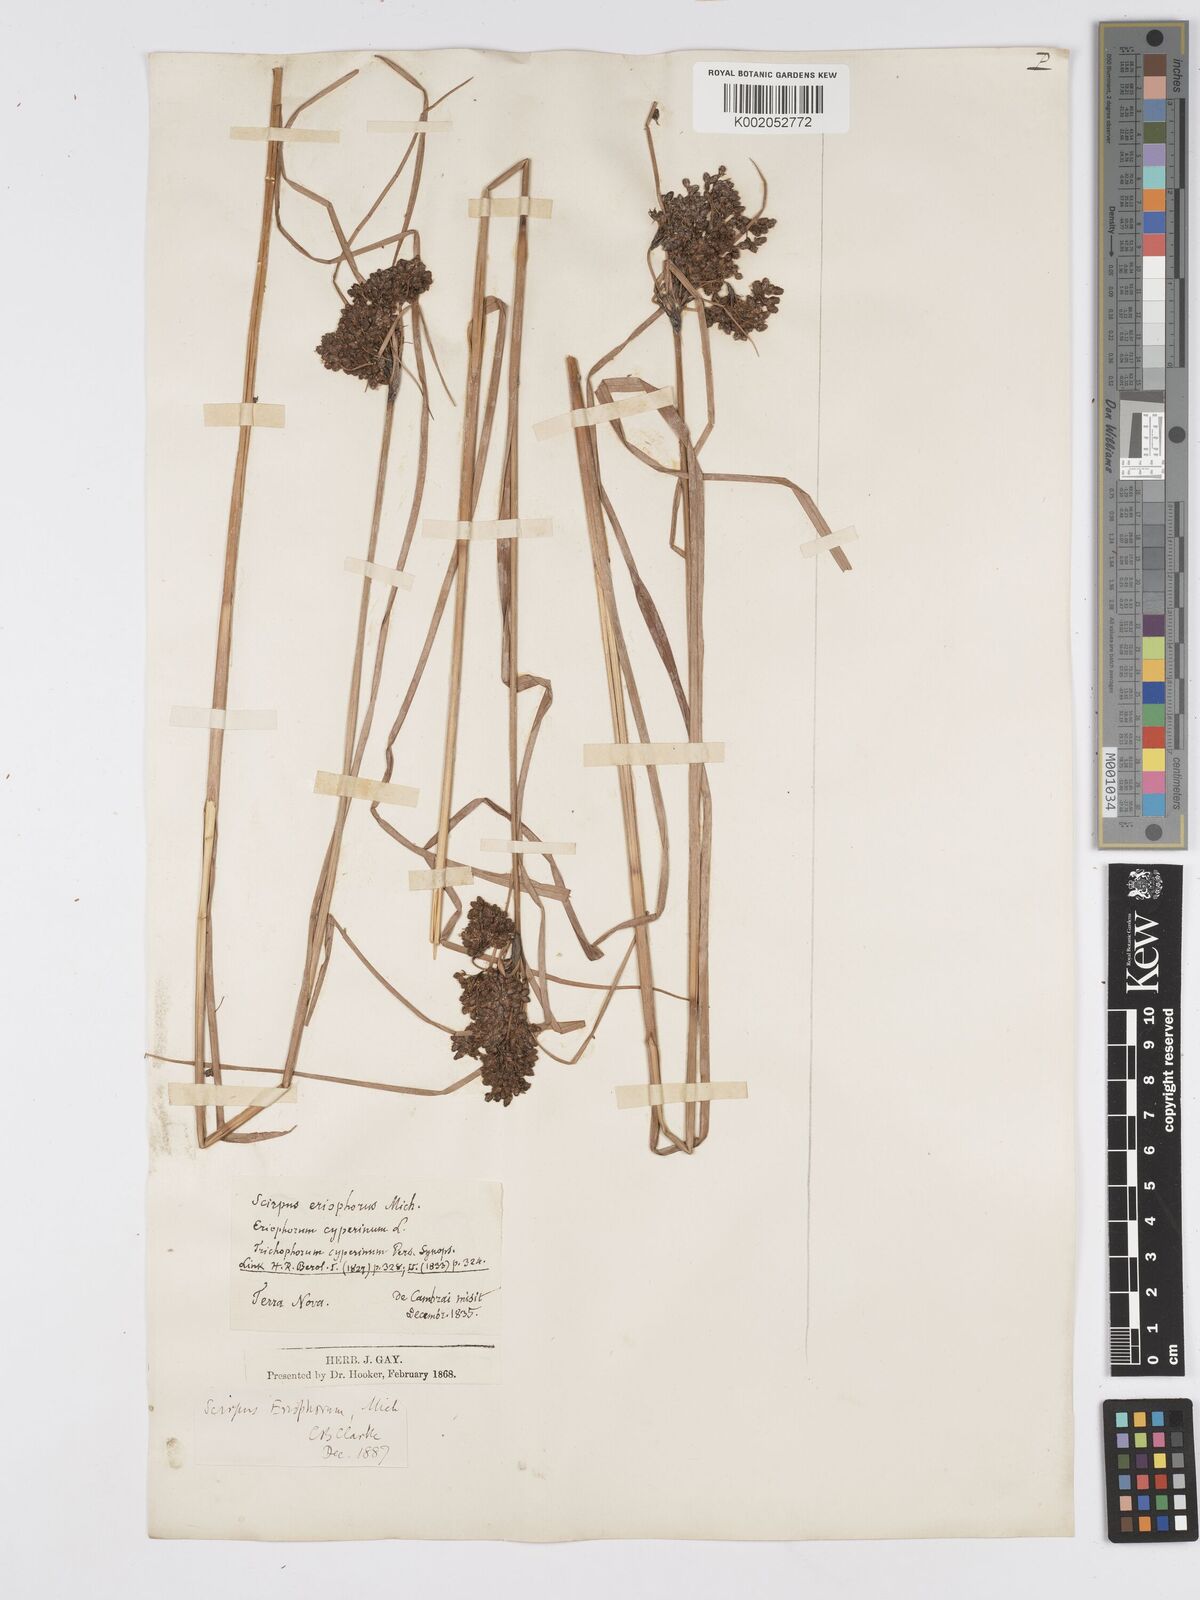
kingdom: Plantae
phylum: Tracheophyta
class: Liliopsida
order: Poales
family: Cyperaceae
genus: Scirpus
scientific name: Scirpus cyperinus
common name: Black-sheathed bulrush
